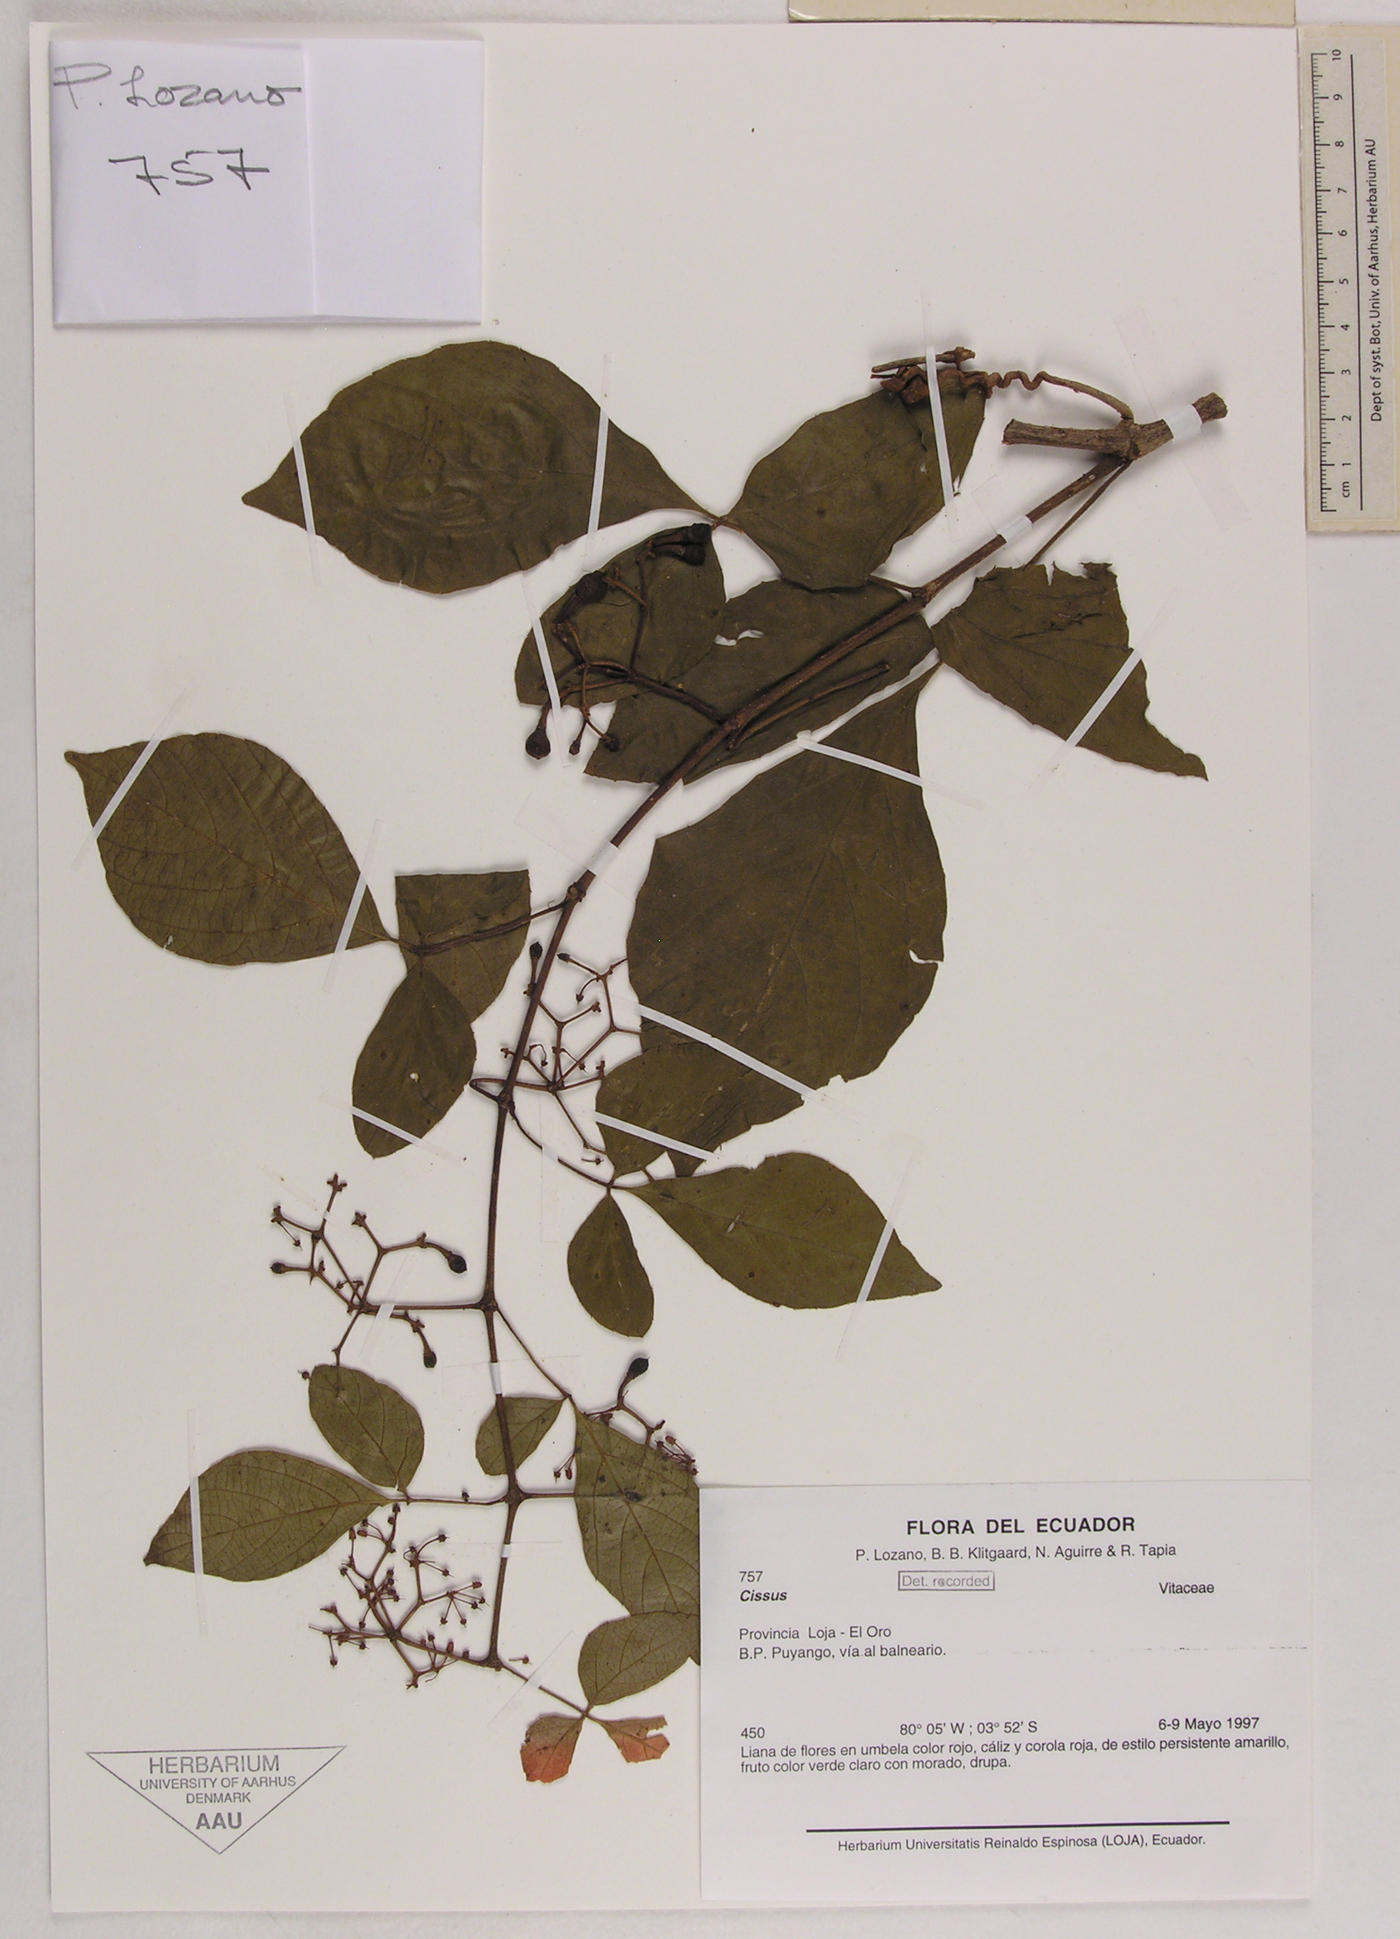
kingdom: Plantae
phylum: Tracheophyta
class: Magnoliopsida
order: Vitales
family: Vitaceae
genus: Cissus
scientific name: Cissus
